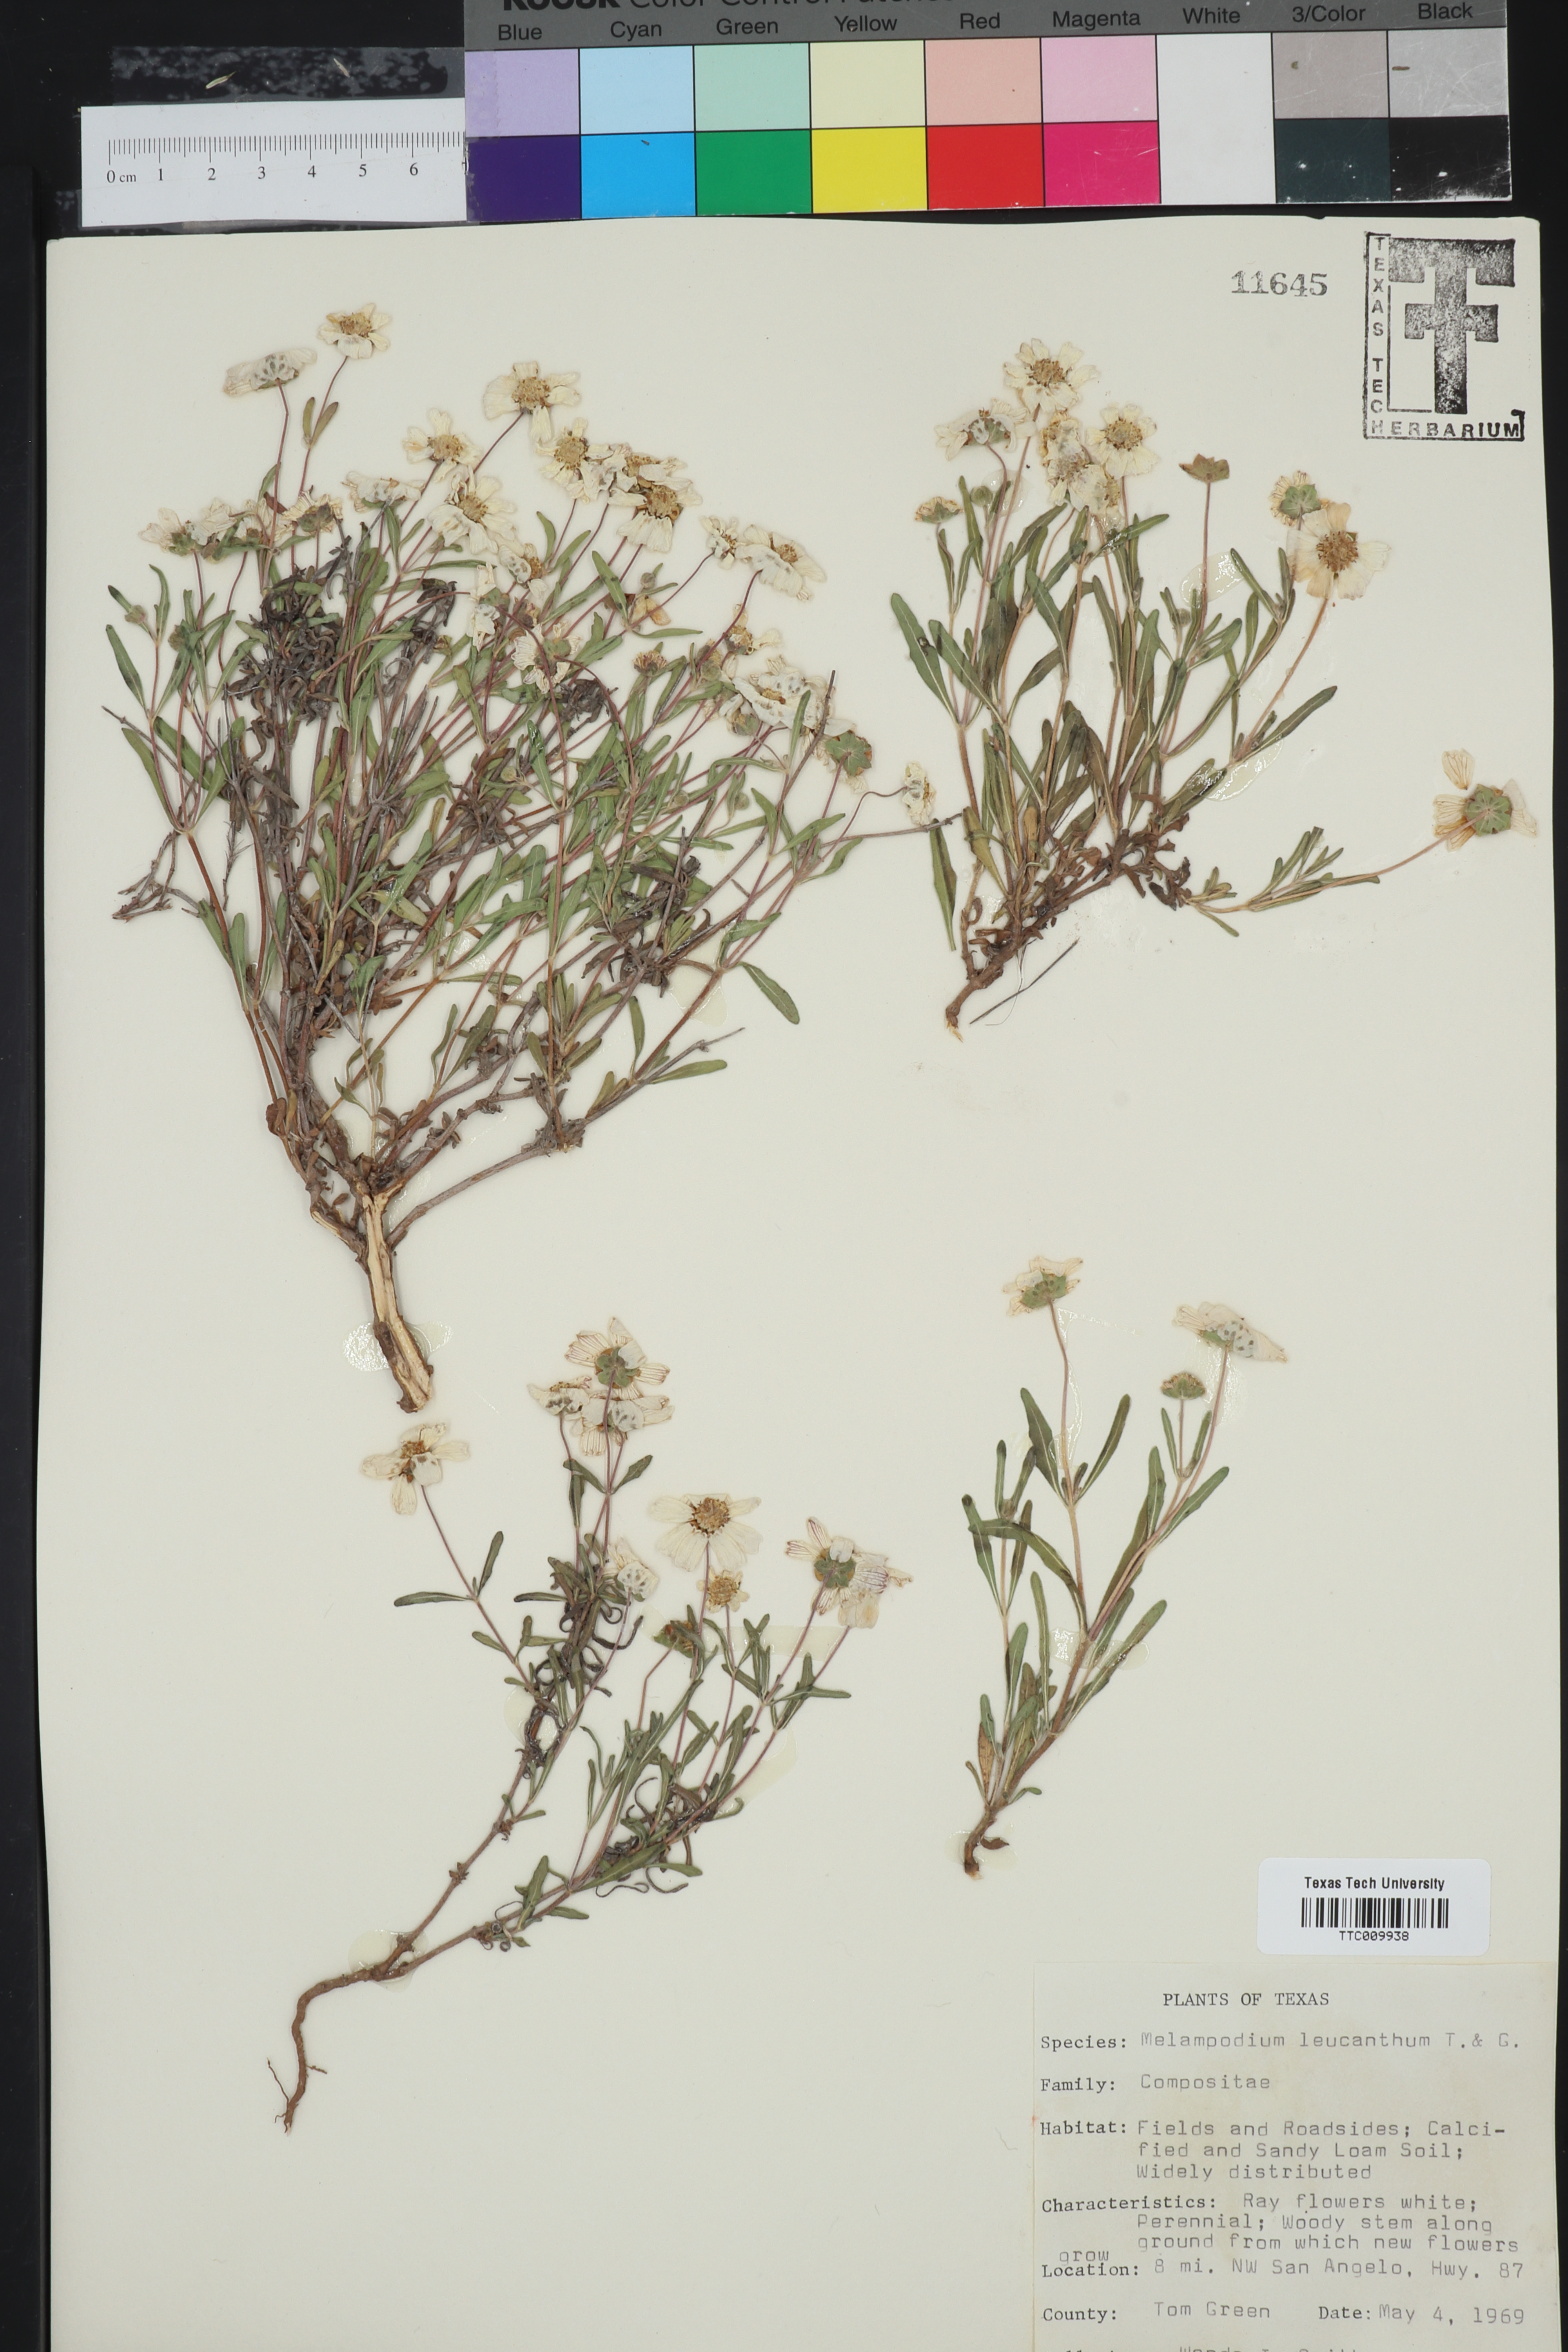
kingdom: Plantae
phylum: Tracheophyta
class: Magnoliopsida
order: Asterales
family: Asteraceae
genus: Melampodium
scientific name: Melampodium leucanthum
